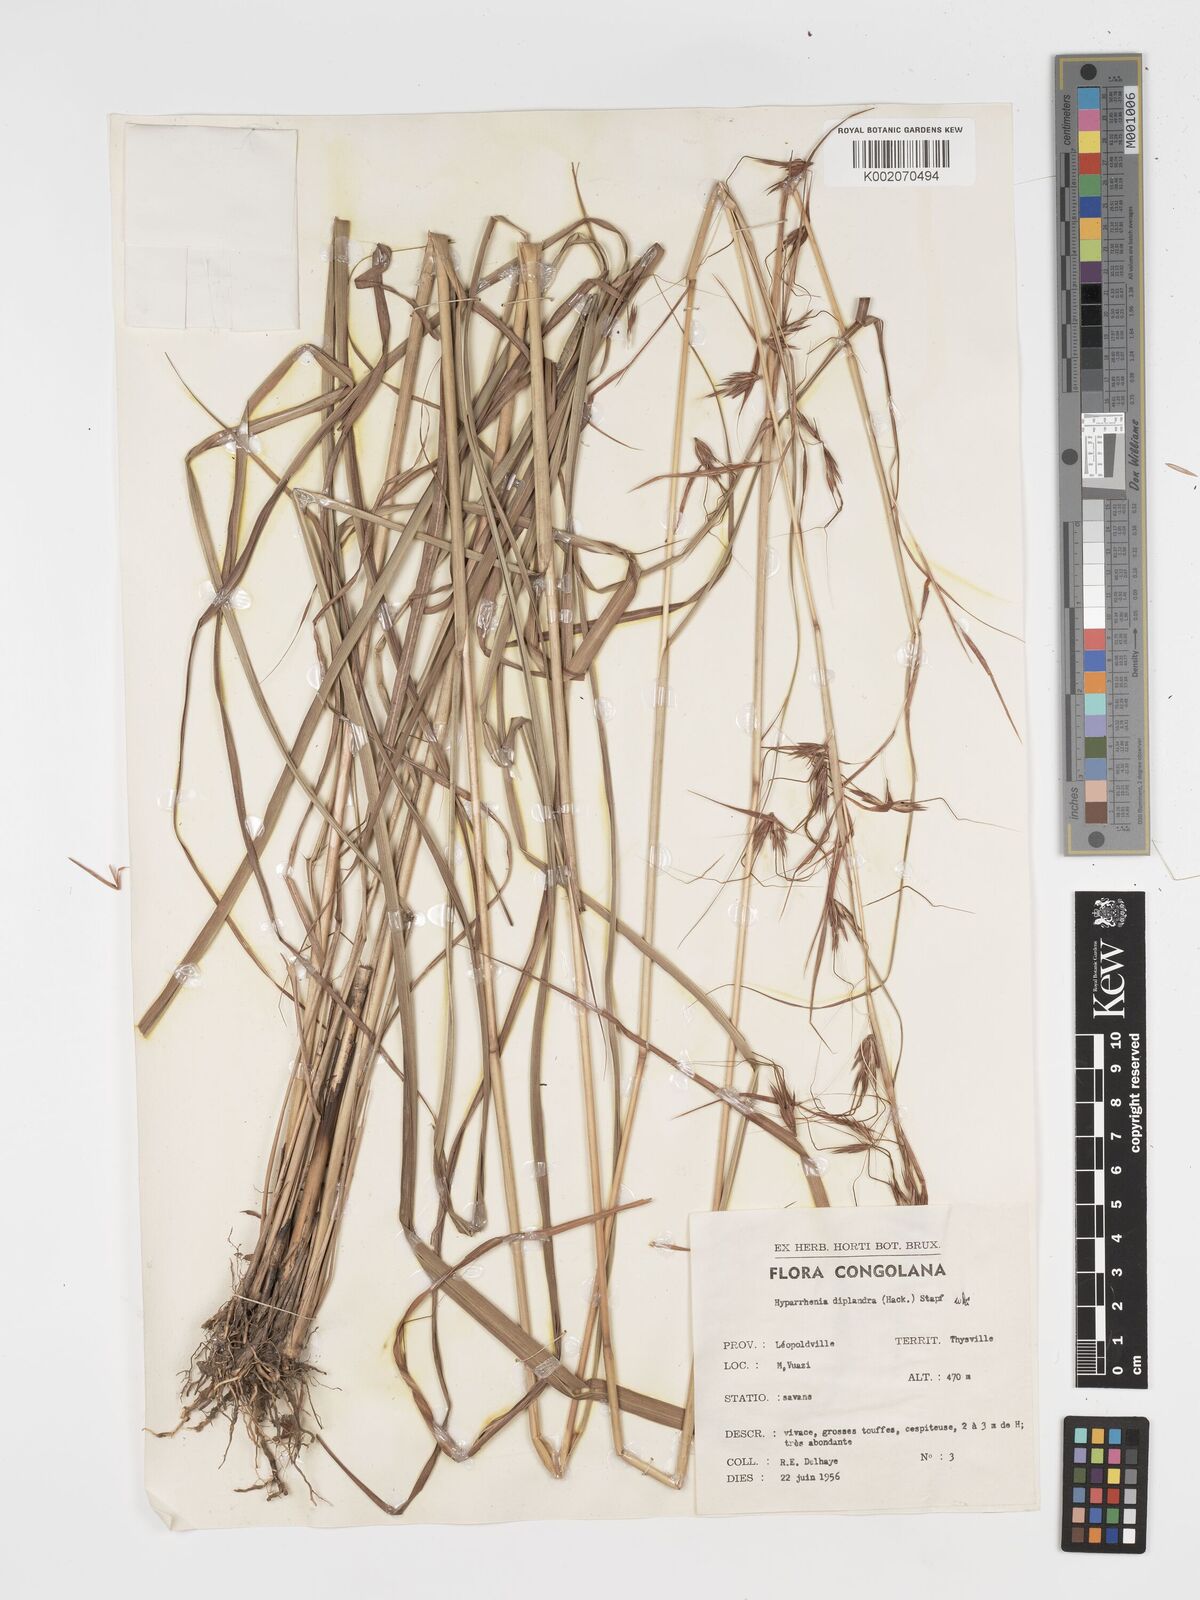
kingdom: Plantae
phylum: Tracheophyta
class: Liliopsida
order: Poales
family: Poaceae
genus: Hyparrhenia
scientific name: Hyparrhenia diplandra
